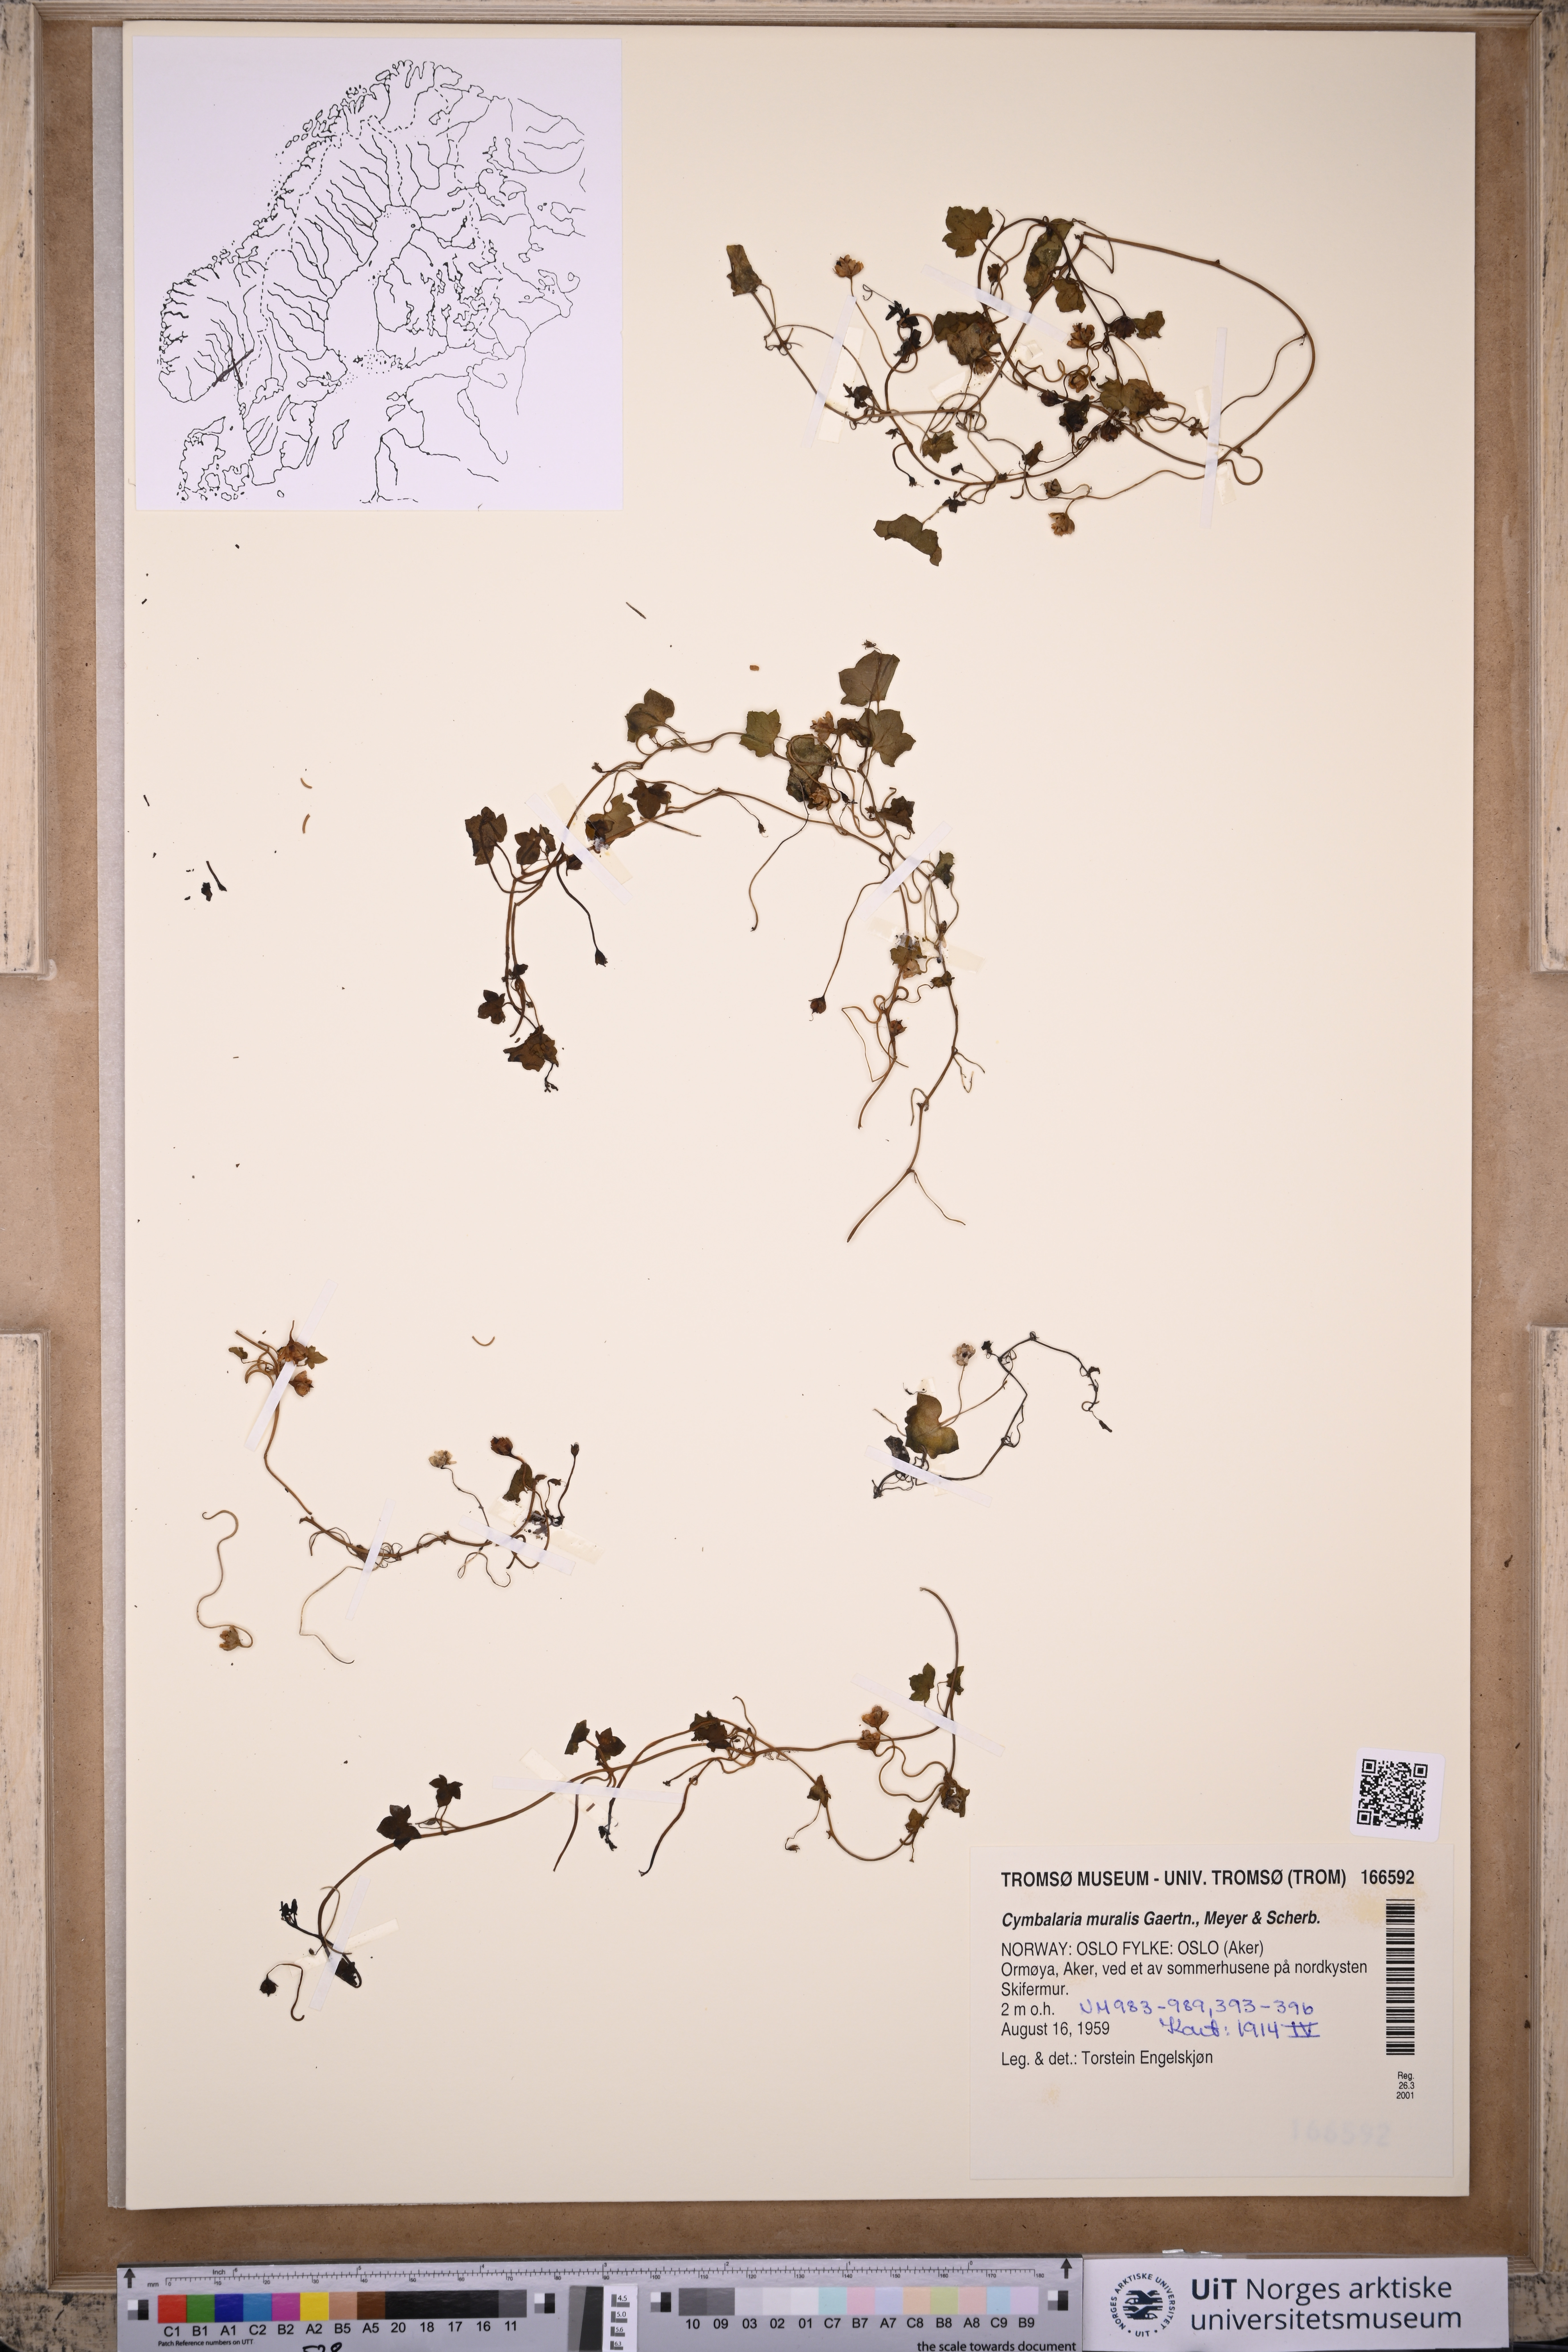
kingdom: Plantae
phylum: Tracheophyta
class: Magnoliopsida
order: Lamiales
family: Plantaginaceae
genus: Cymbalaria
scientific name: Cymbalaria muralis
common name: Ivy-leaved toadflax
